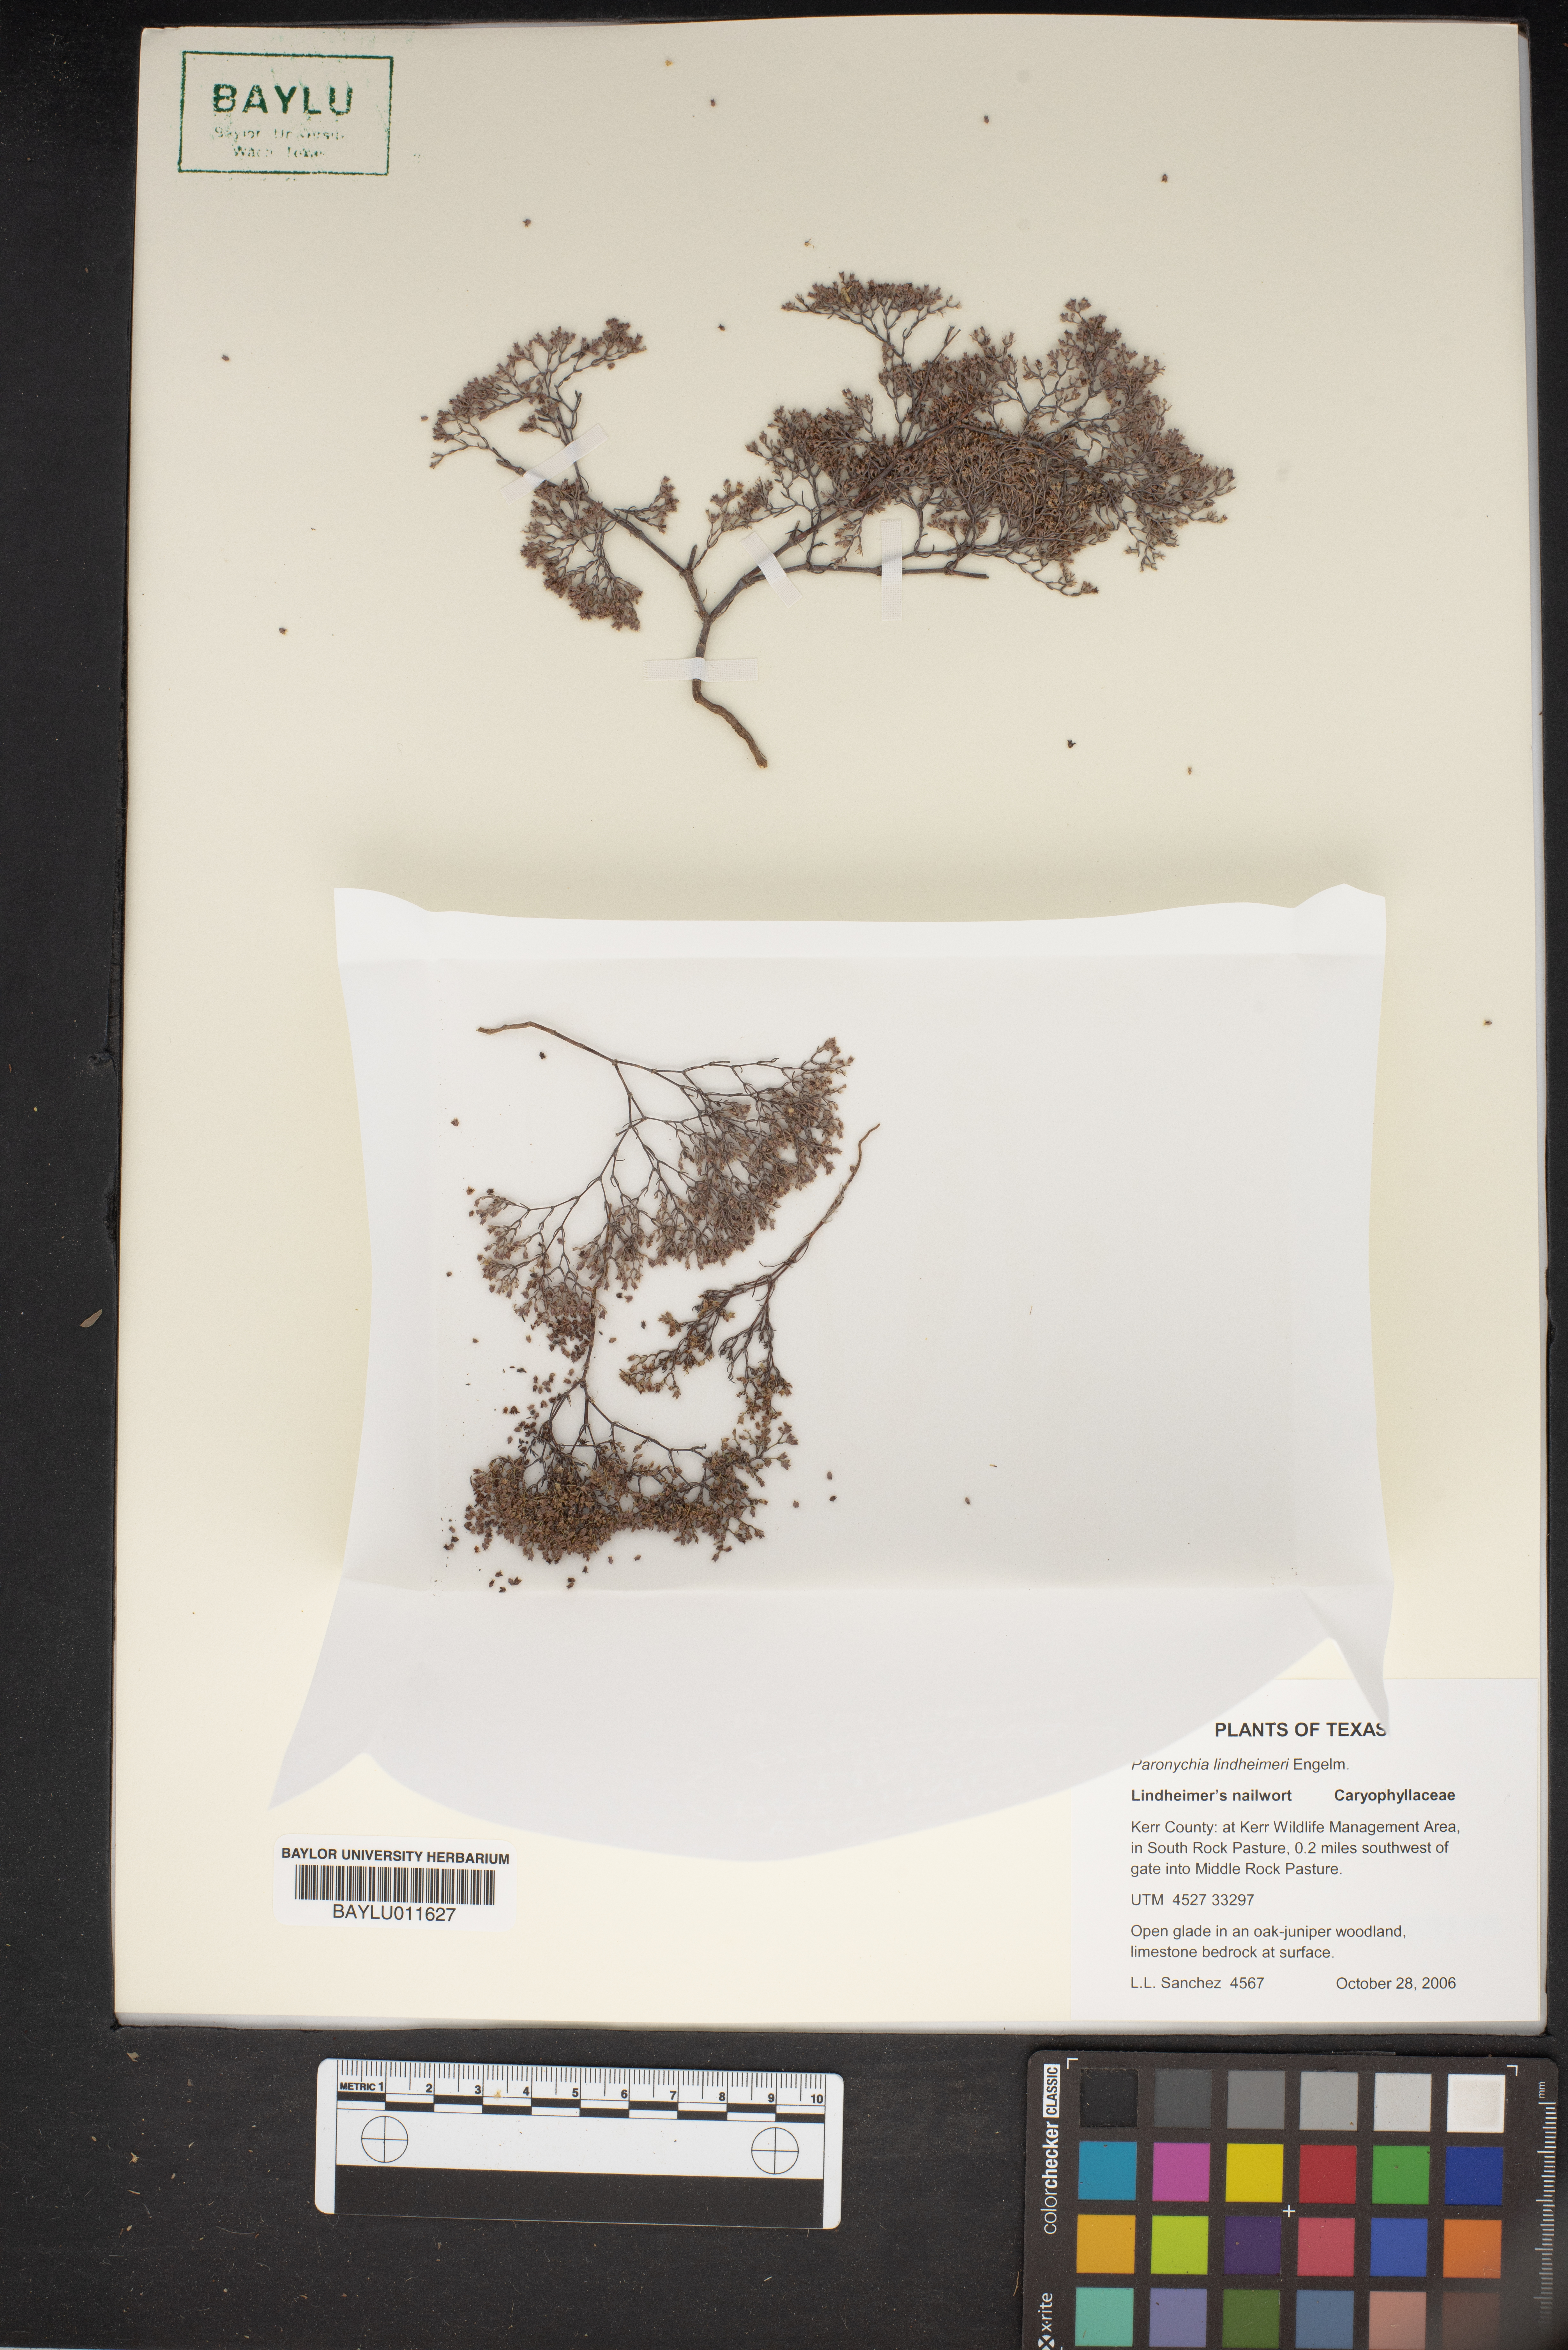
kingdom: Plantae
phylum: Tracheophyta
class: Magnoliopsida
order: Caryophyllales
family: Caryophyllaceae
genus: Paronychia
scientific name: Paronychia lindheimeri
